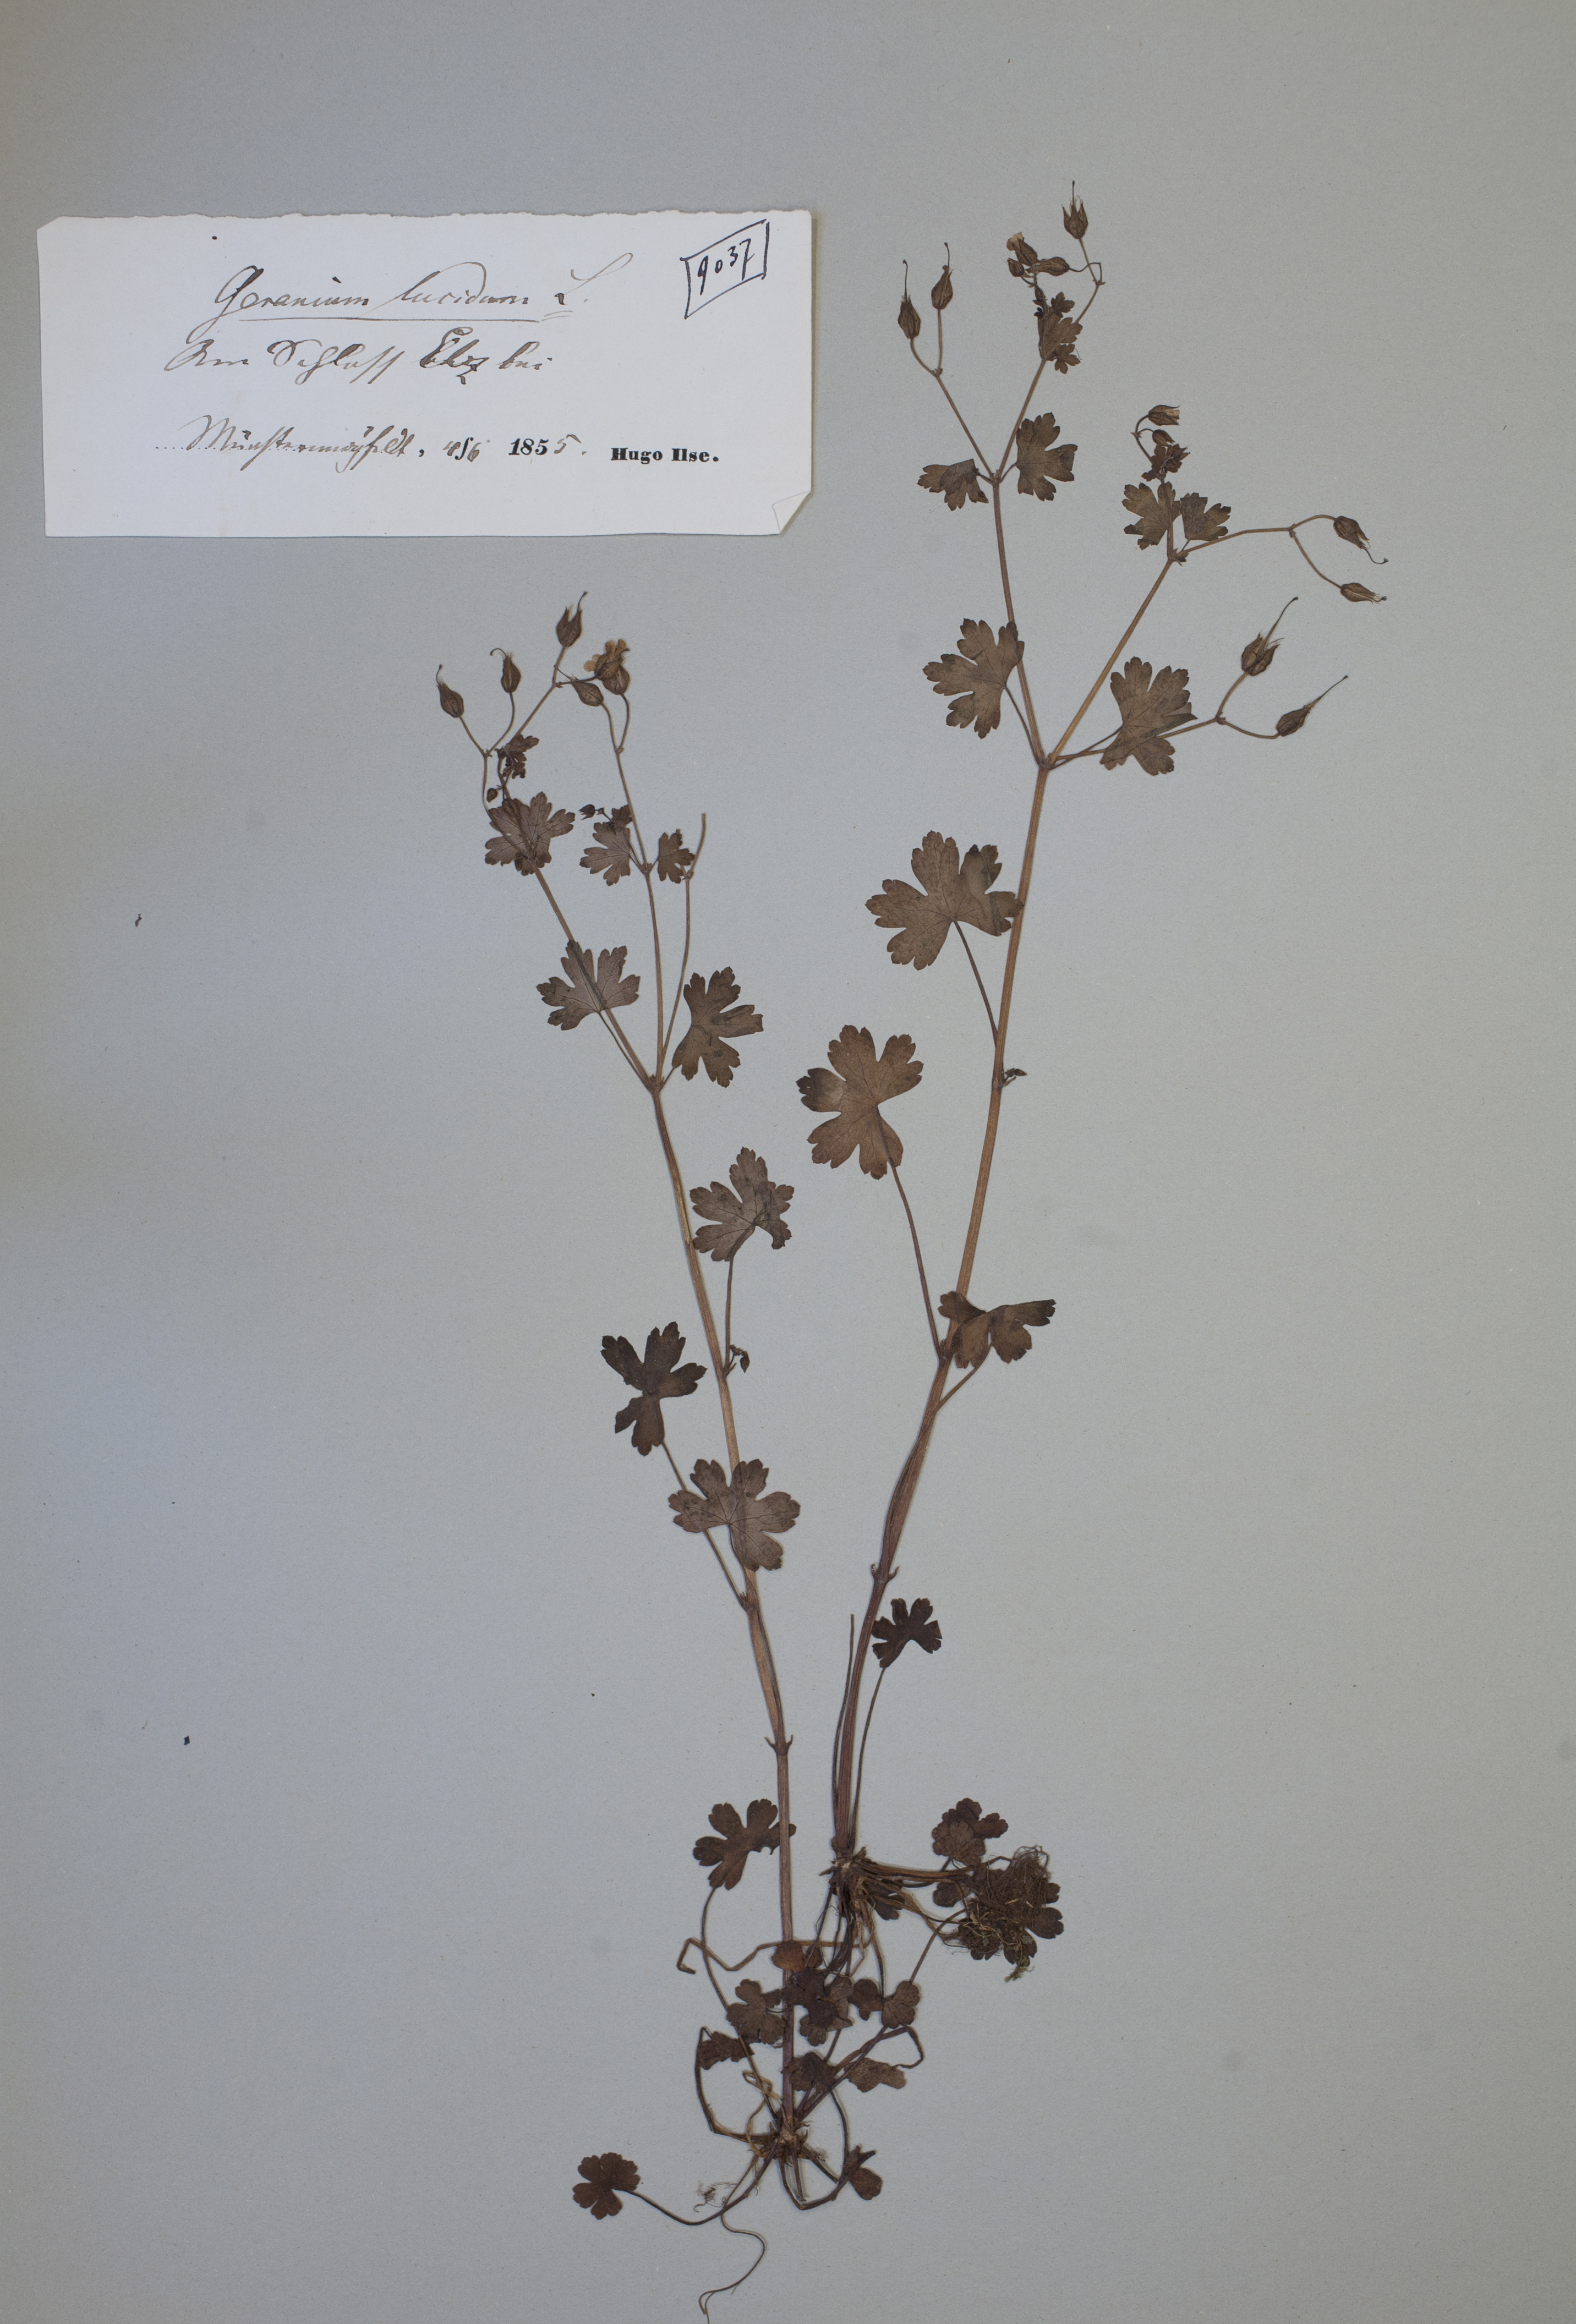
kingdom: Plantae
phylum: Tracheophyta
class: Magnoliopsida
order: Geraniales
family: Geraniaceae
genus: Geranium
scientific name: Geranium lucidum
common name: Shining crane's-bill
